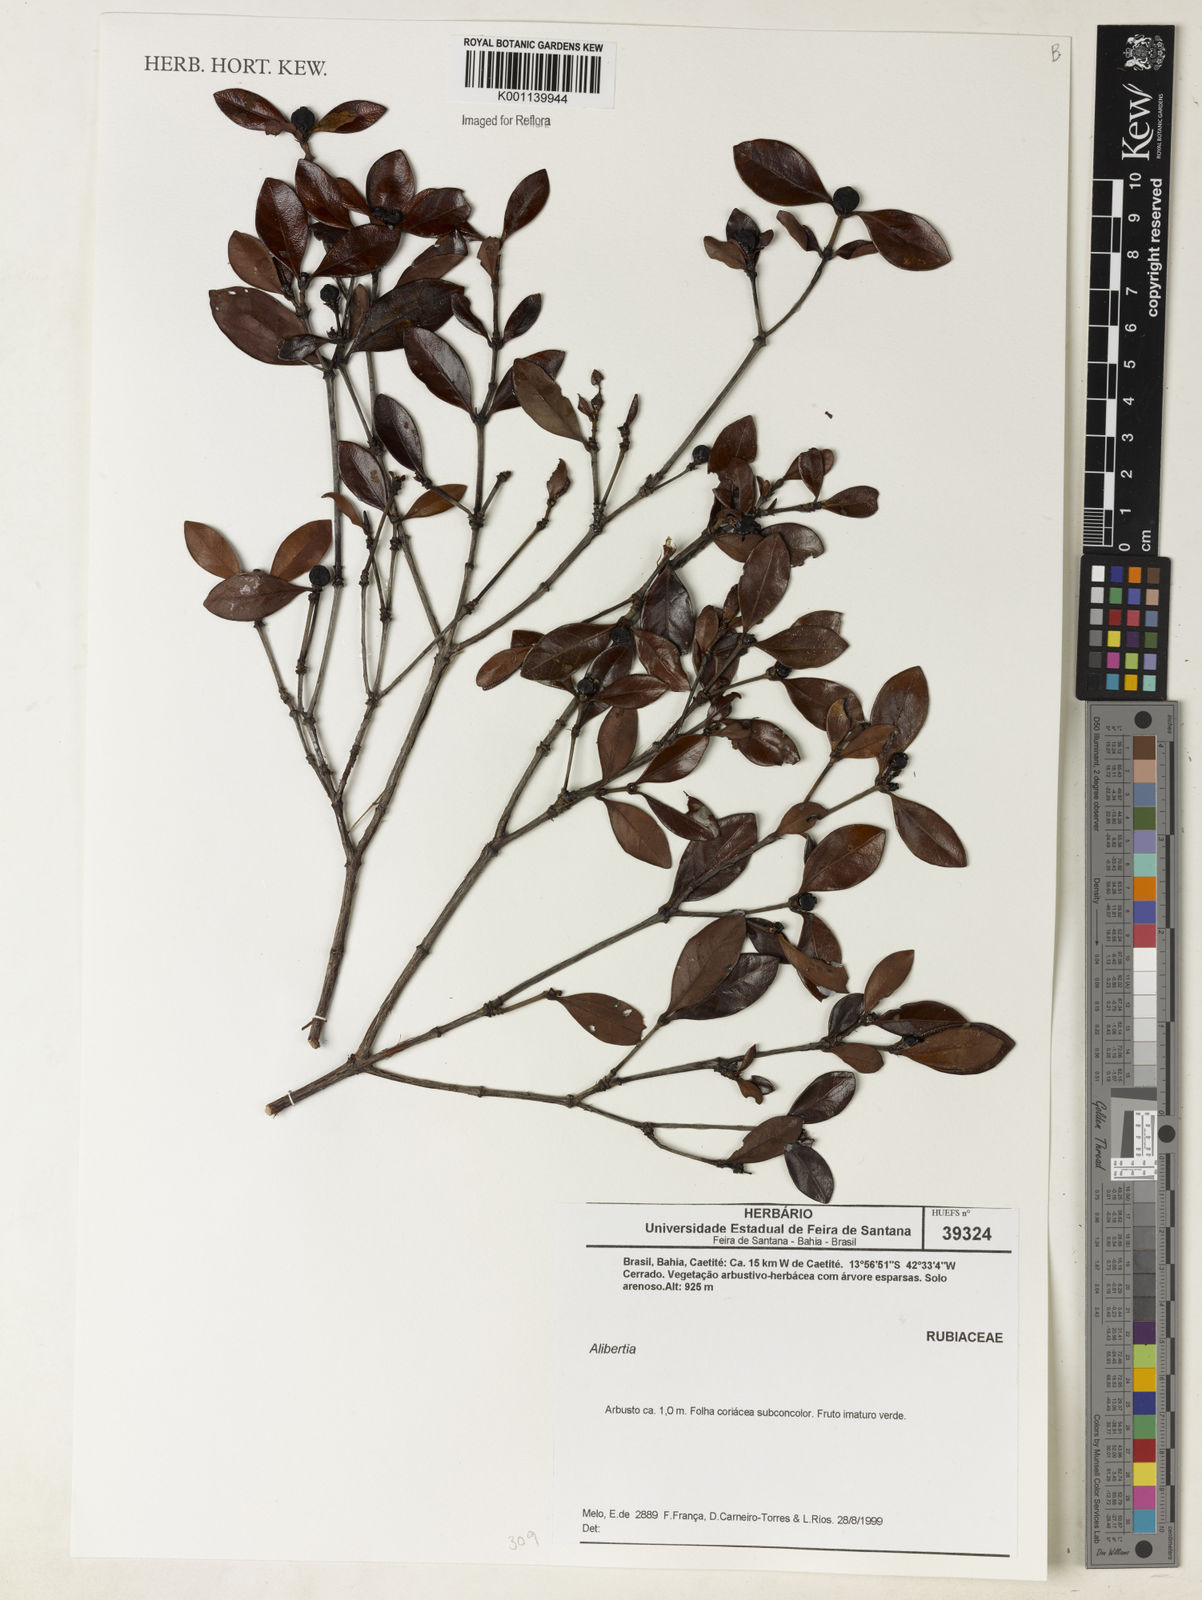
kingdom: Plantae
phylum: Tracheophyta
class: Magnoliopsida
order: Gentianales
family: Rubiaceae
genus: Alibertia
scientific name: Alibertia
